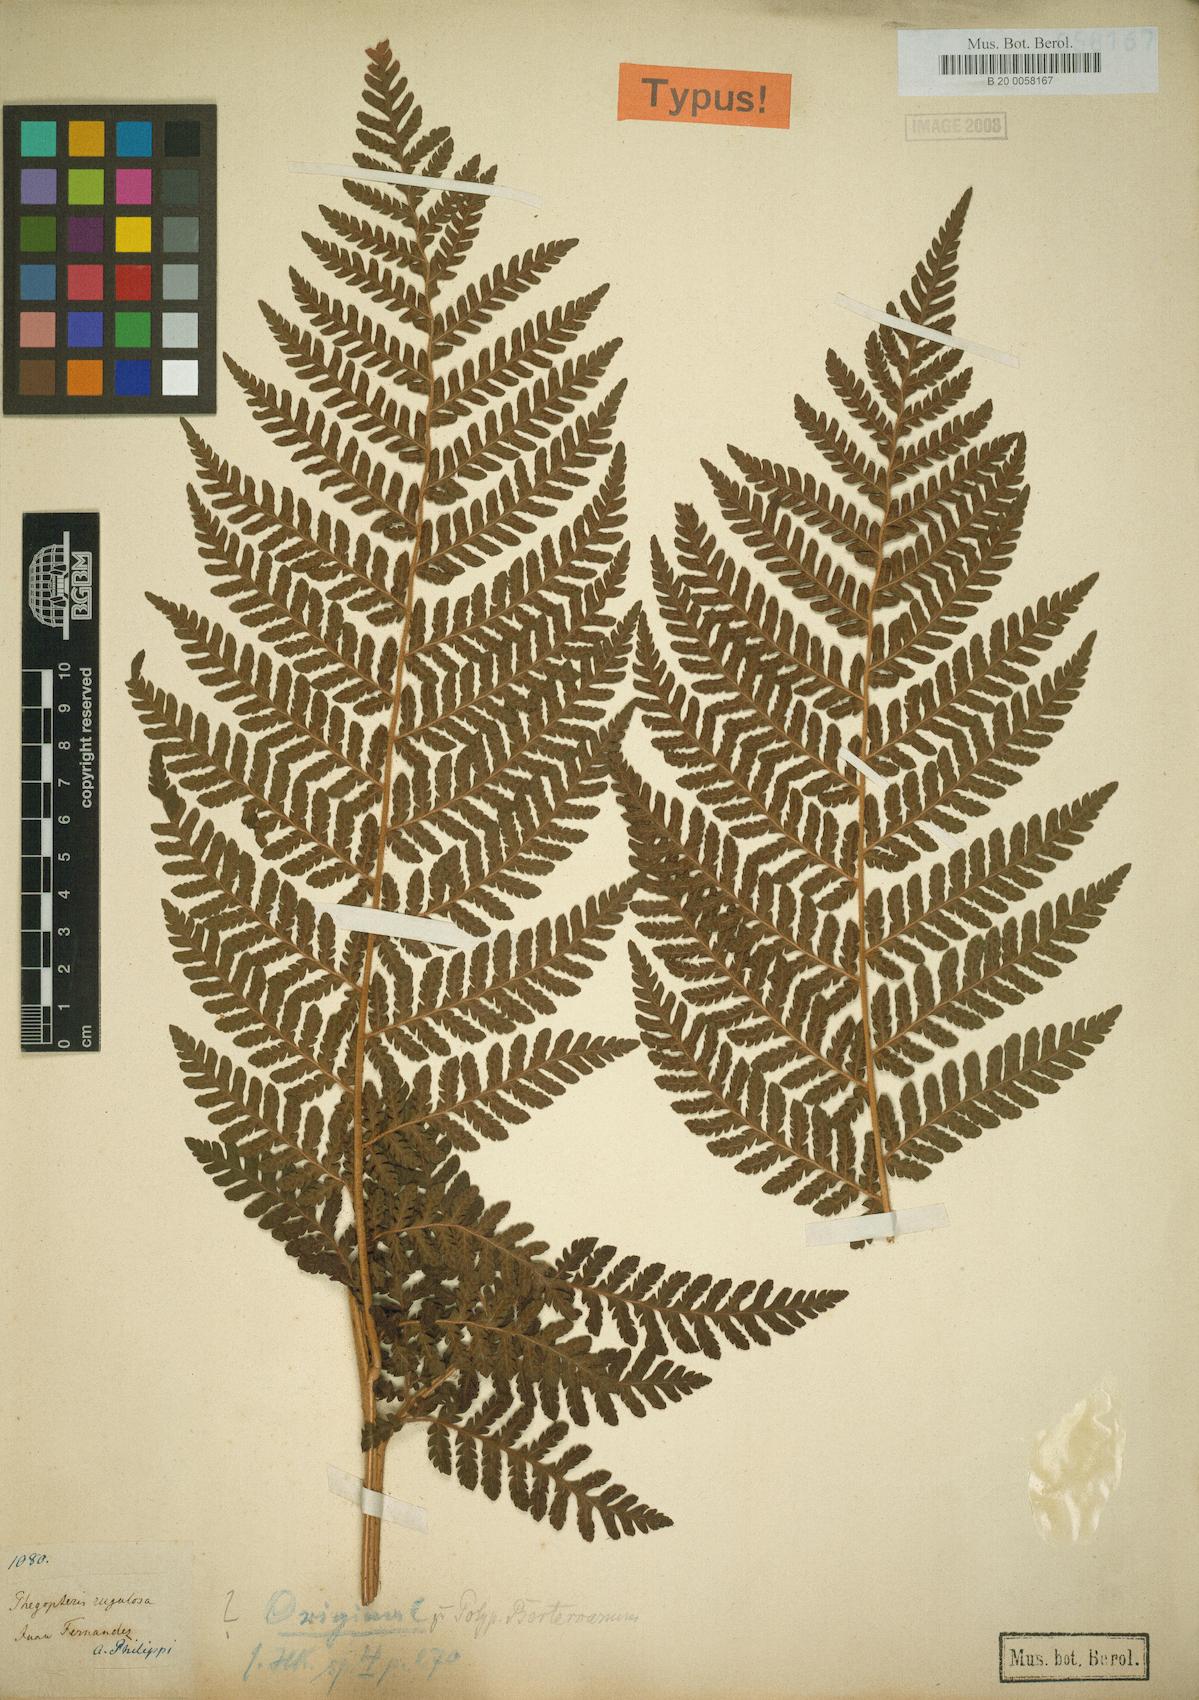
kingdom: Plantae
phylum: Tracheophyta
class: Polypodiopsida
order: Polypodiales
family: Dryopteridaceae
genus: Megalastrum
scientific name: Megalastrum inaequalifolium
